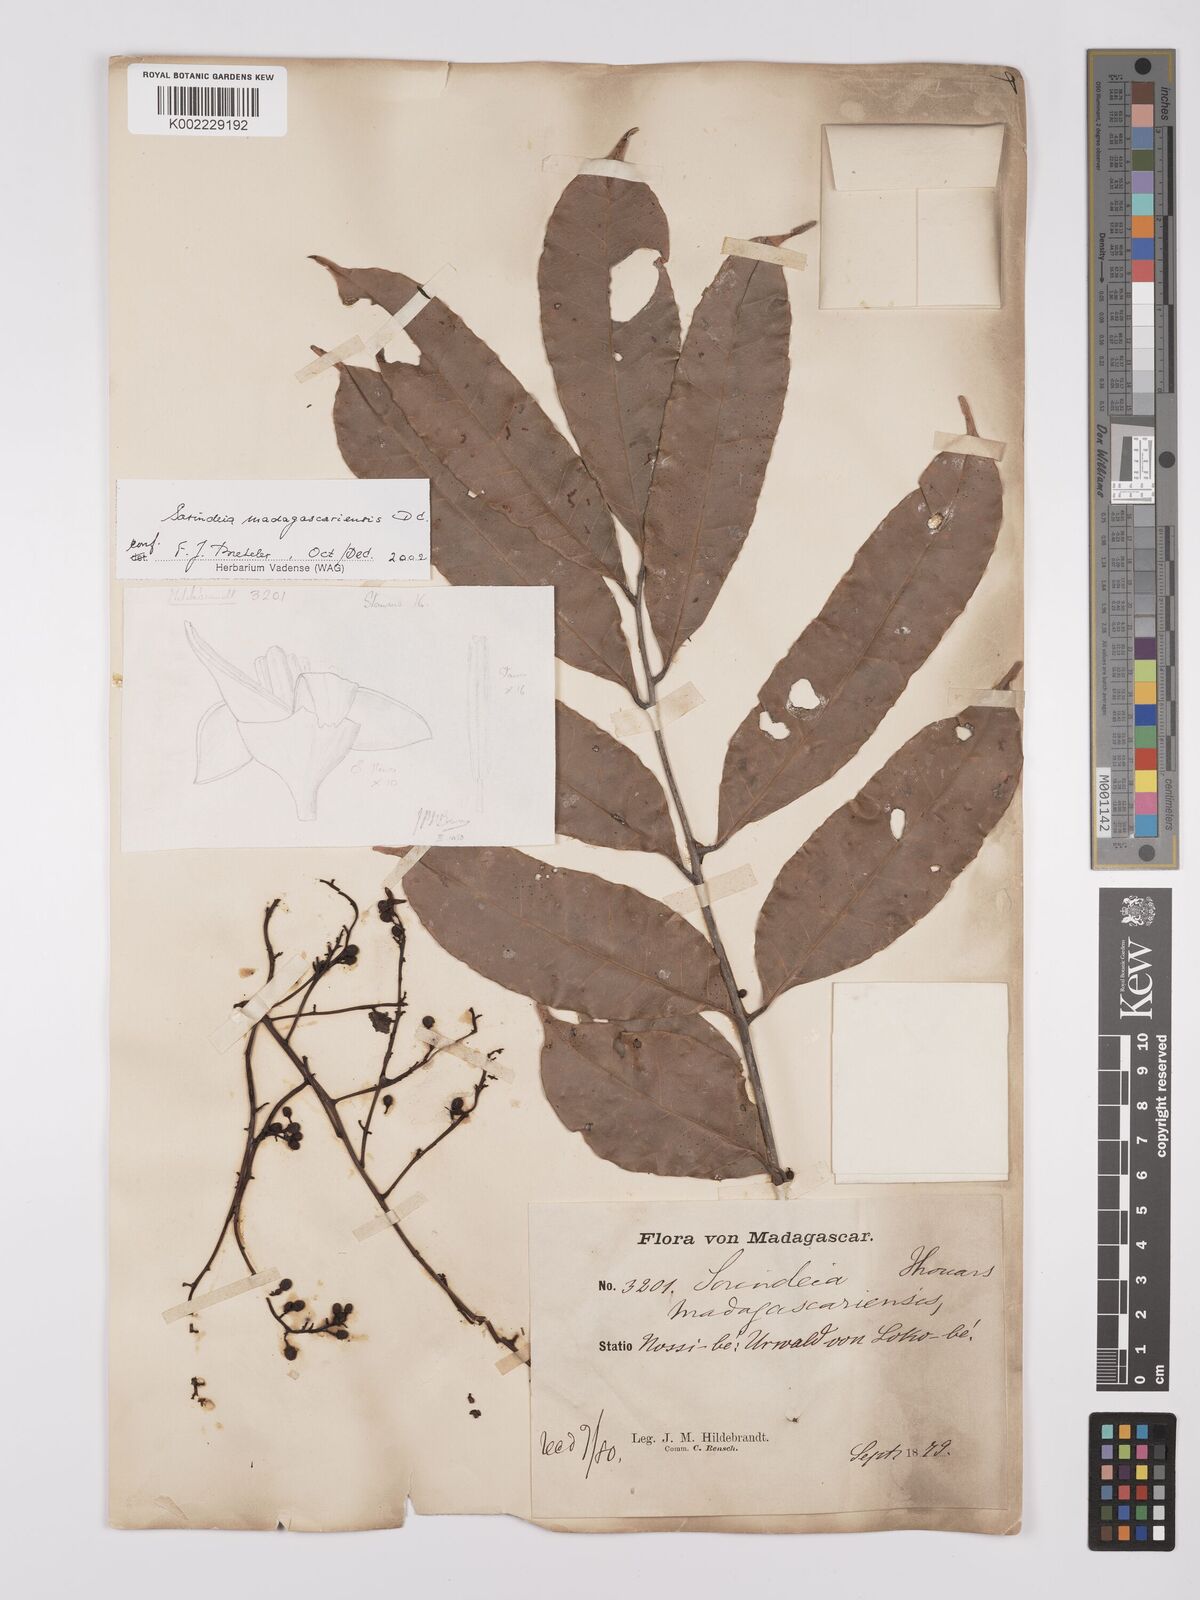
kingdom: Plantae
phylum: Tracheophyta
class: Magnoliopsida
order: Sapindales
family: Anacardiaceae
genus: Sorindeia
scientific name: Sorindeia madagascariensis
